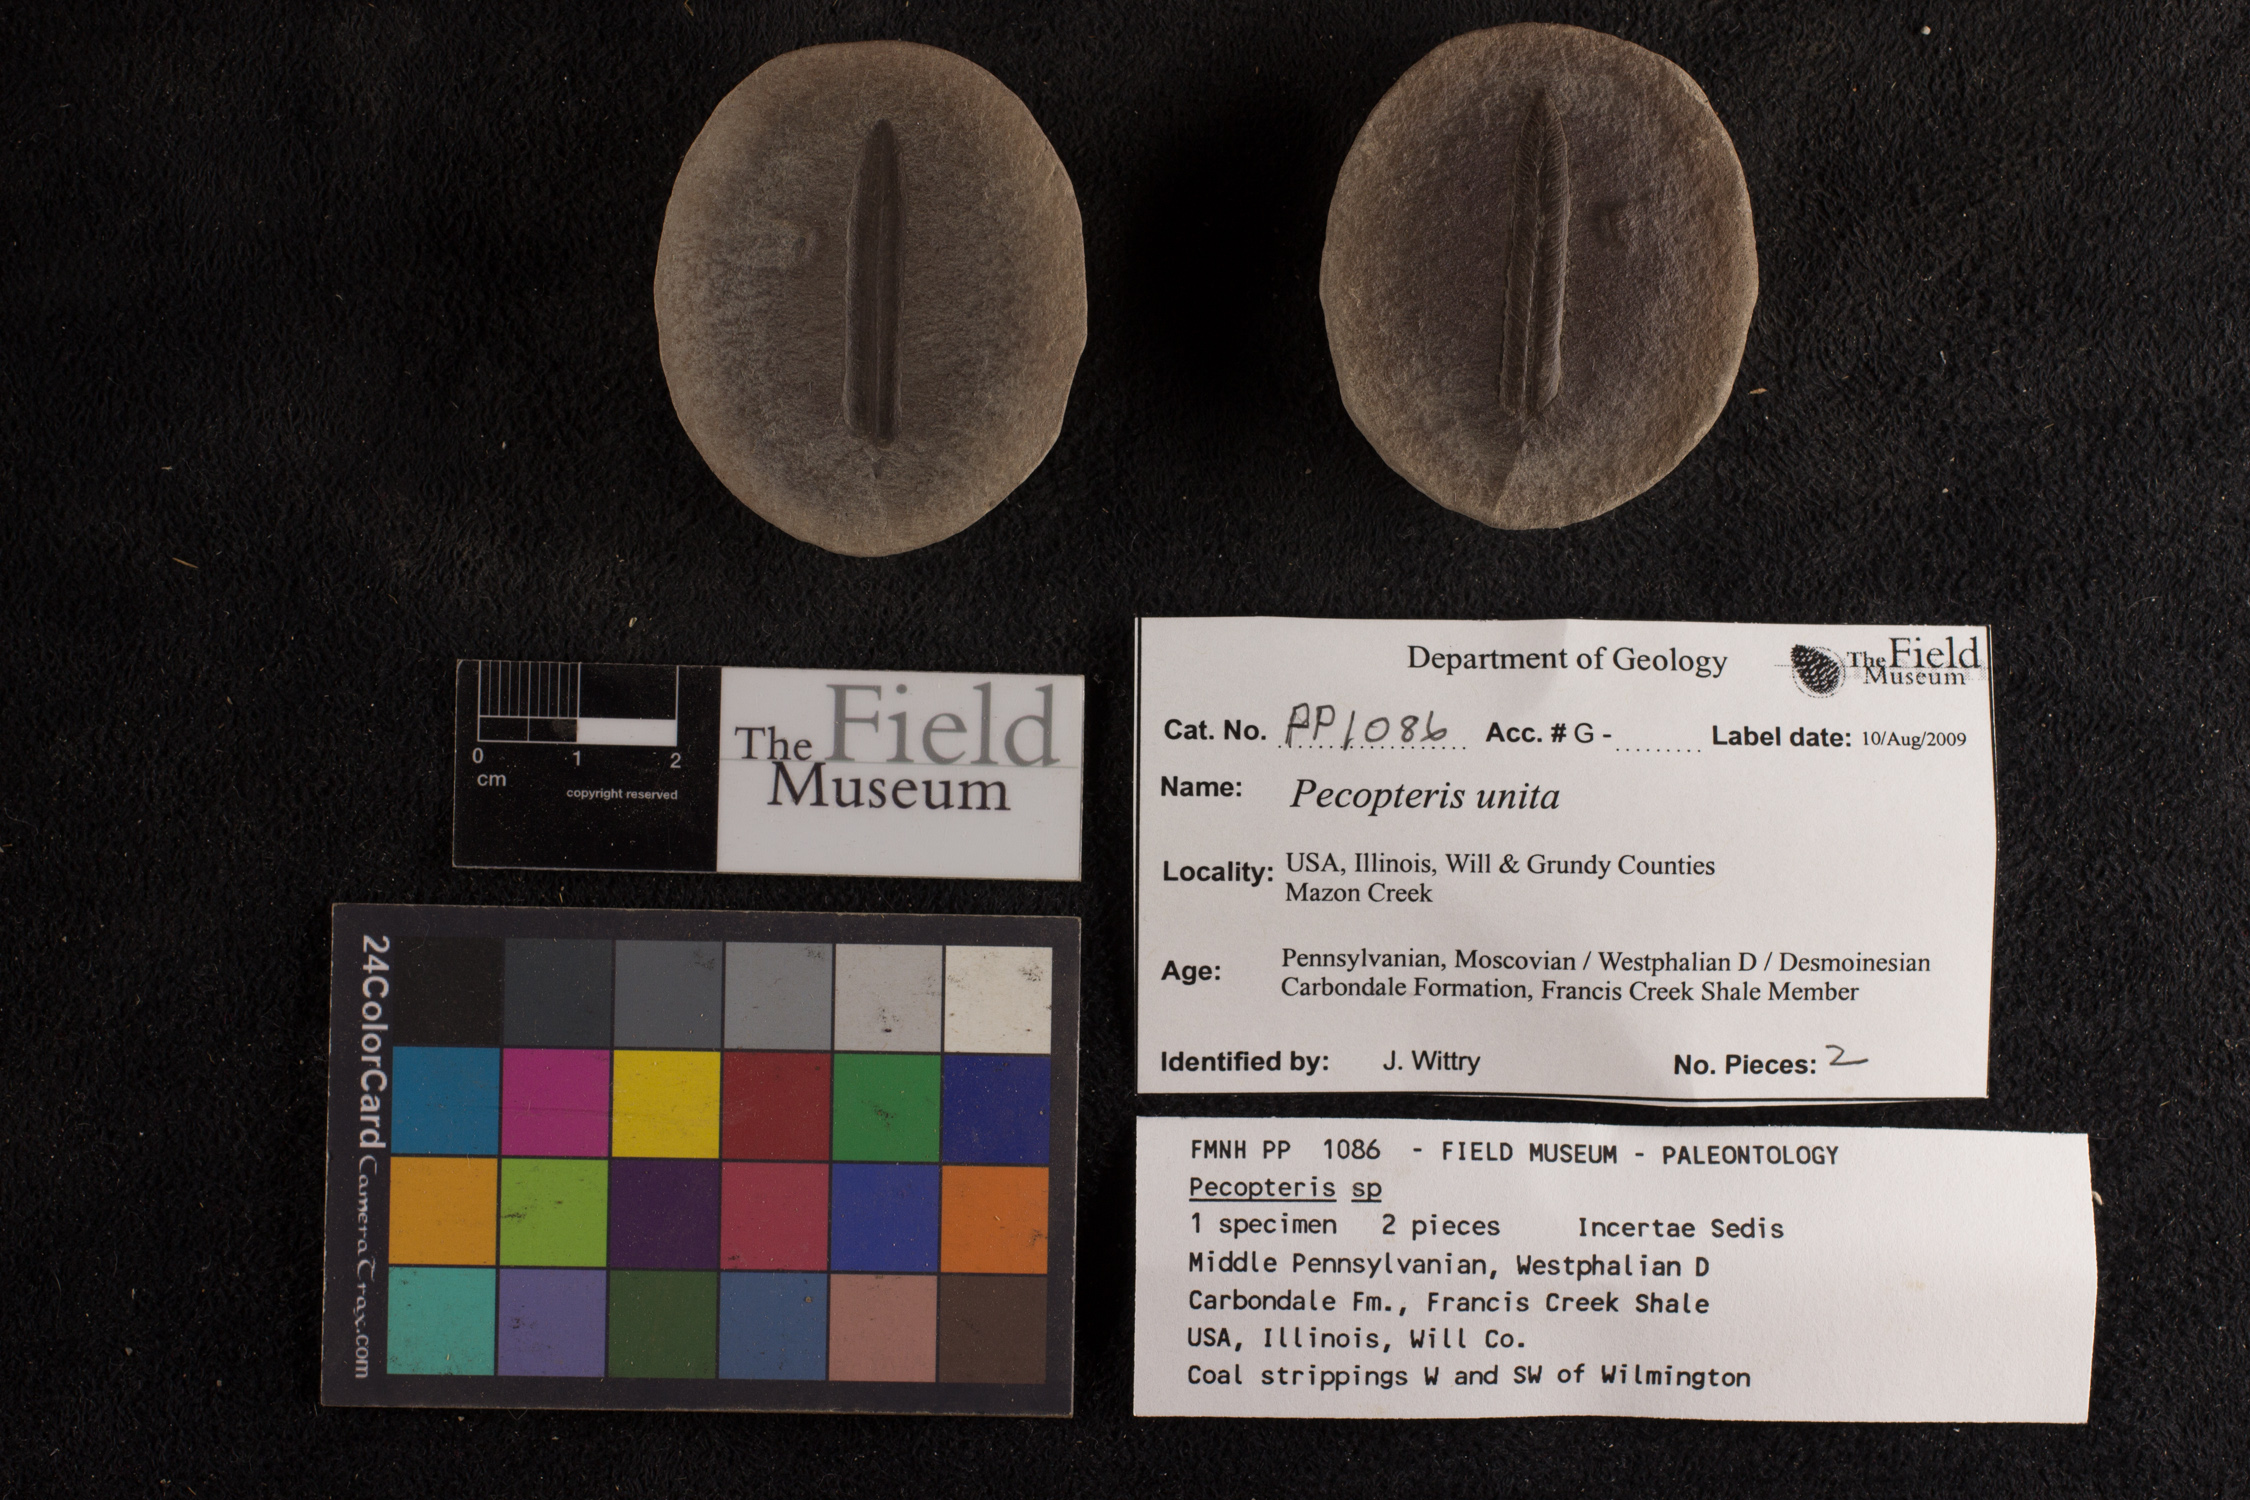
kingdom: Plantae
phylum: Tracheophyta
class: Polypodiopsida
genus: Diplazites
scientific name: Diplazites
